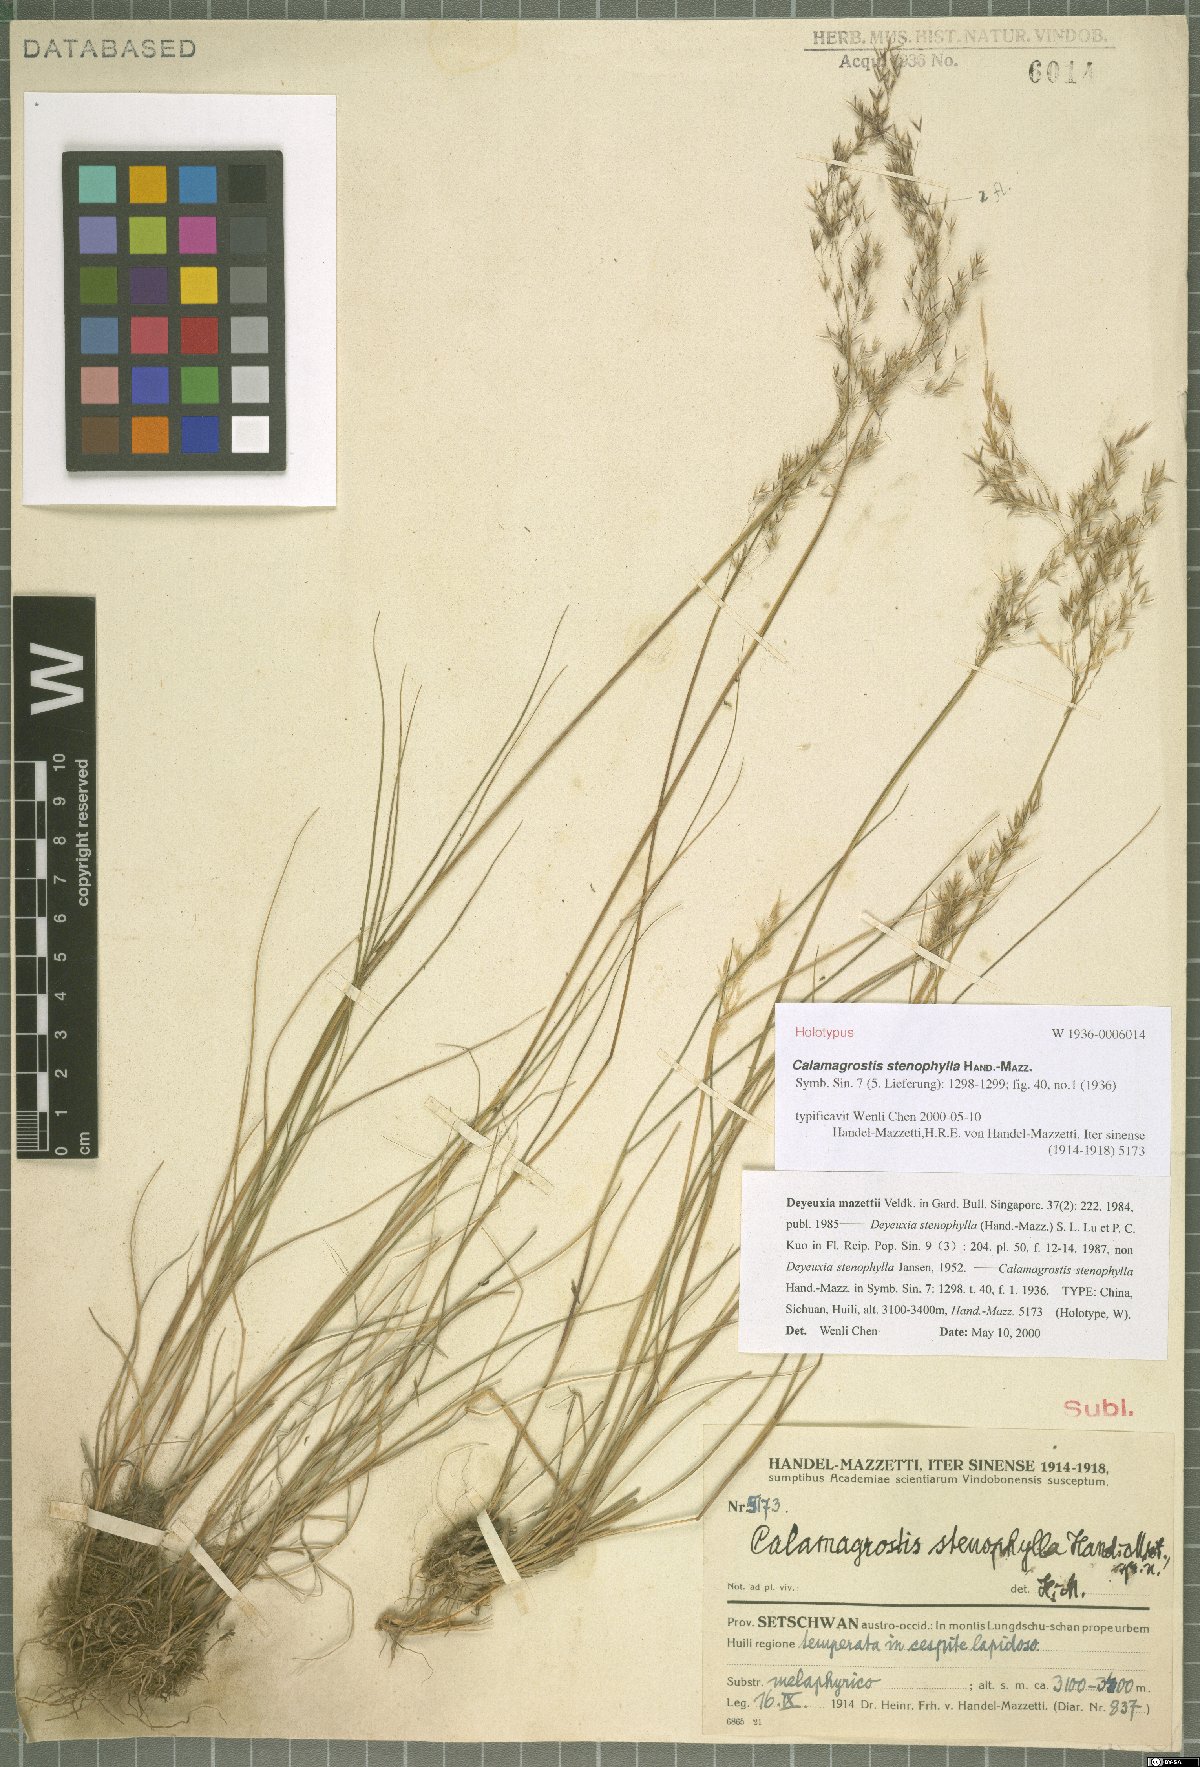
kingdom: Plantae
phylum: Tracheophyta
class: Liliopsida
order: Poales
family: Poaceae
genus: Calamagrostis
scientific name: Calamagrostis stenophylla
